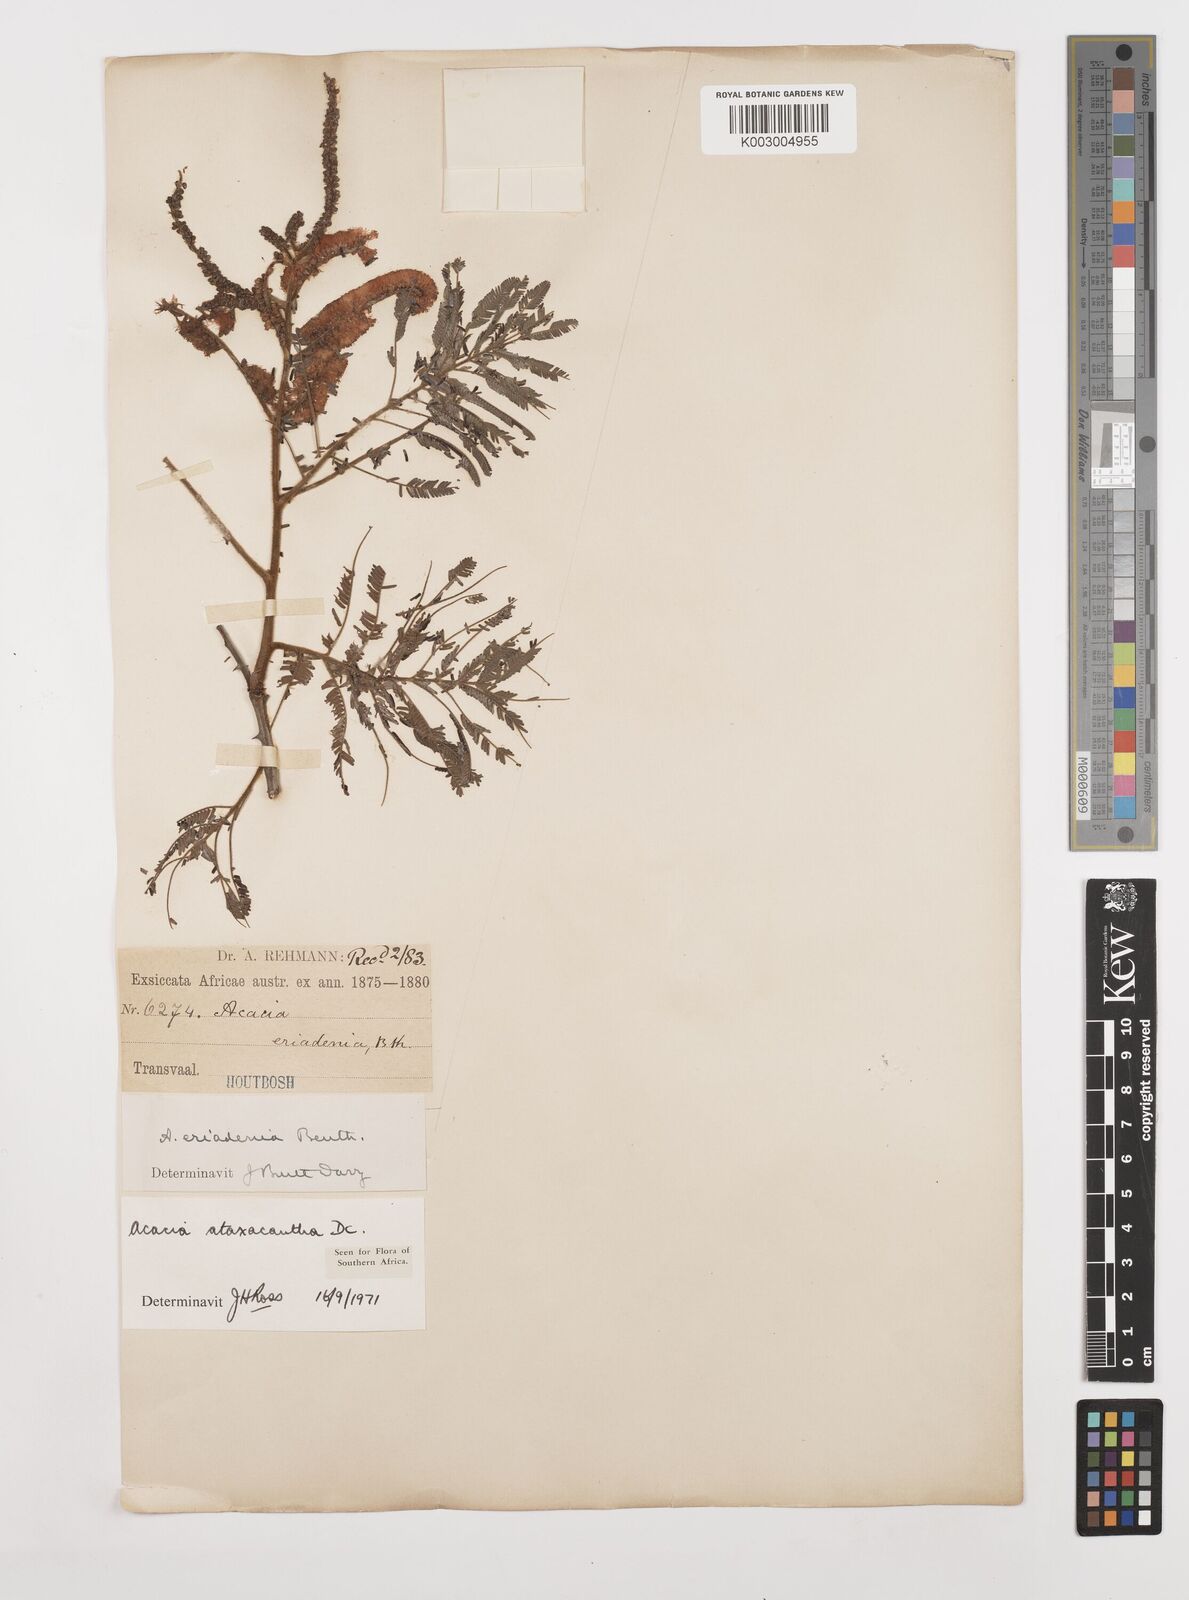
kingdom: Plantae
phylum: Tracheophyta
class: Magnoliopsida
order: Fabales
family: Fabaceae
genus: Senegalia
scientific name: Senegalia ataxacantha
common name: Flame acacia
